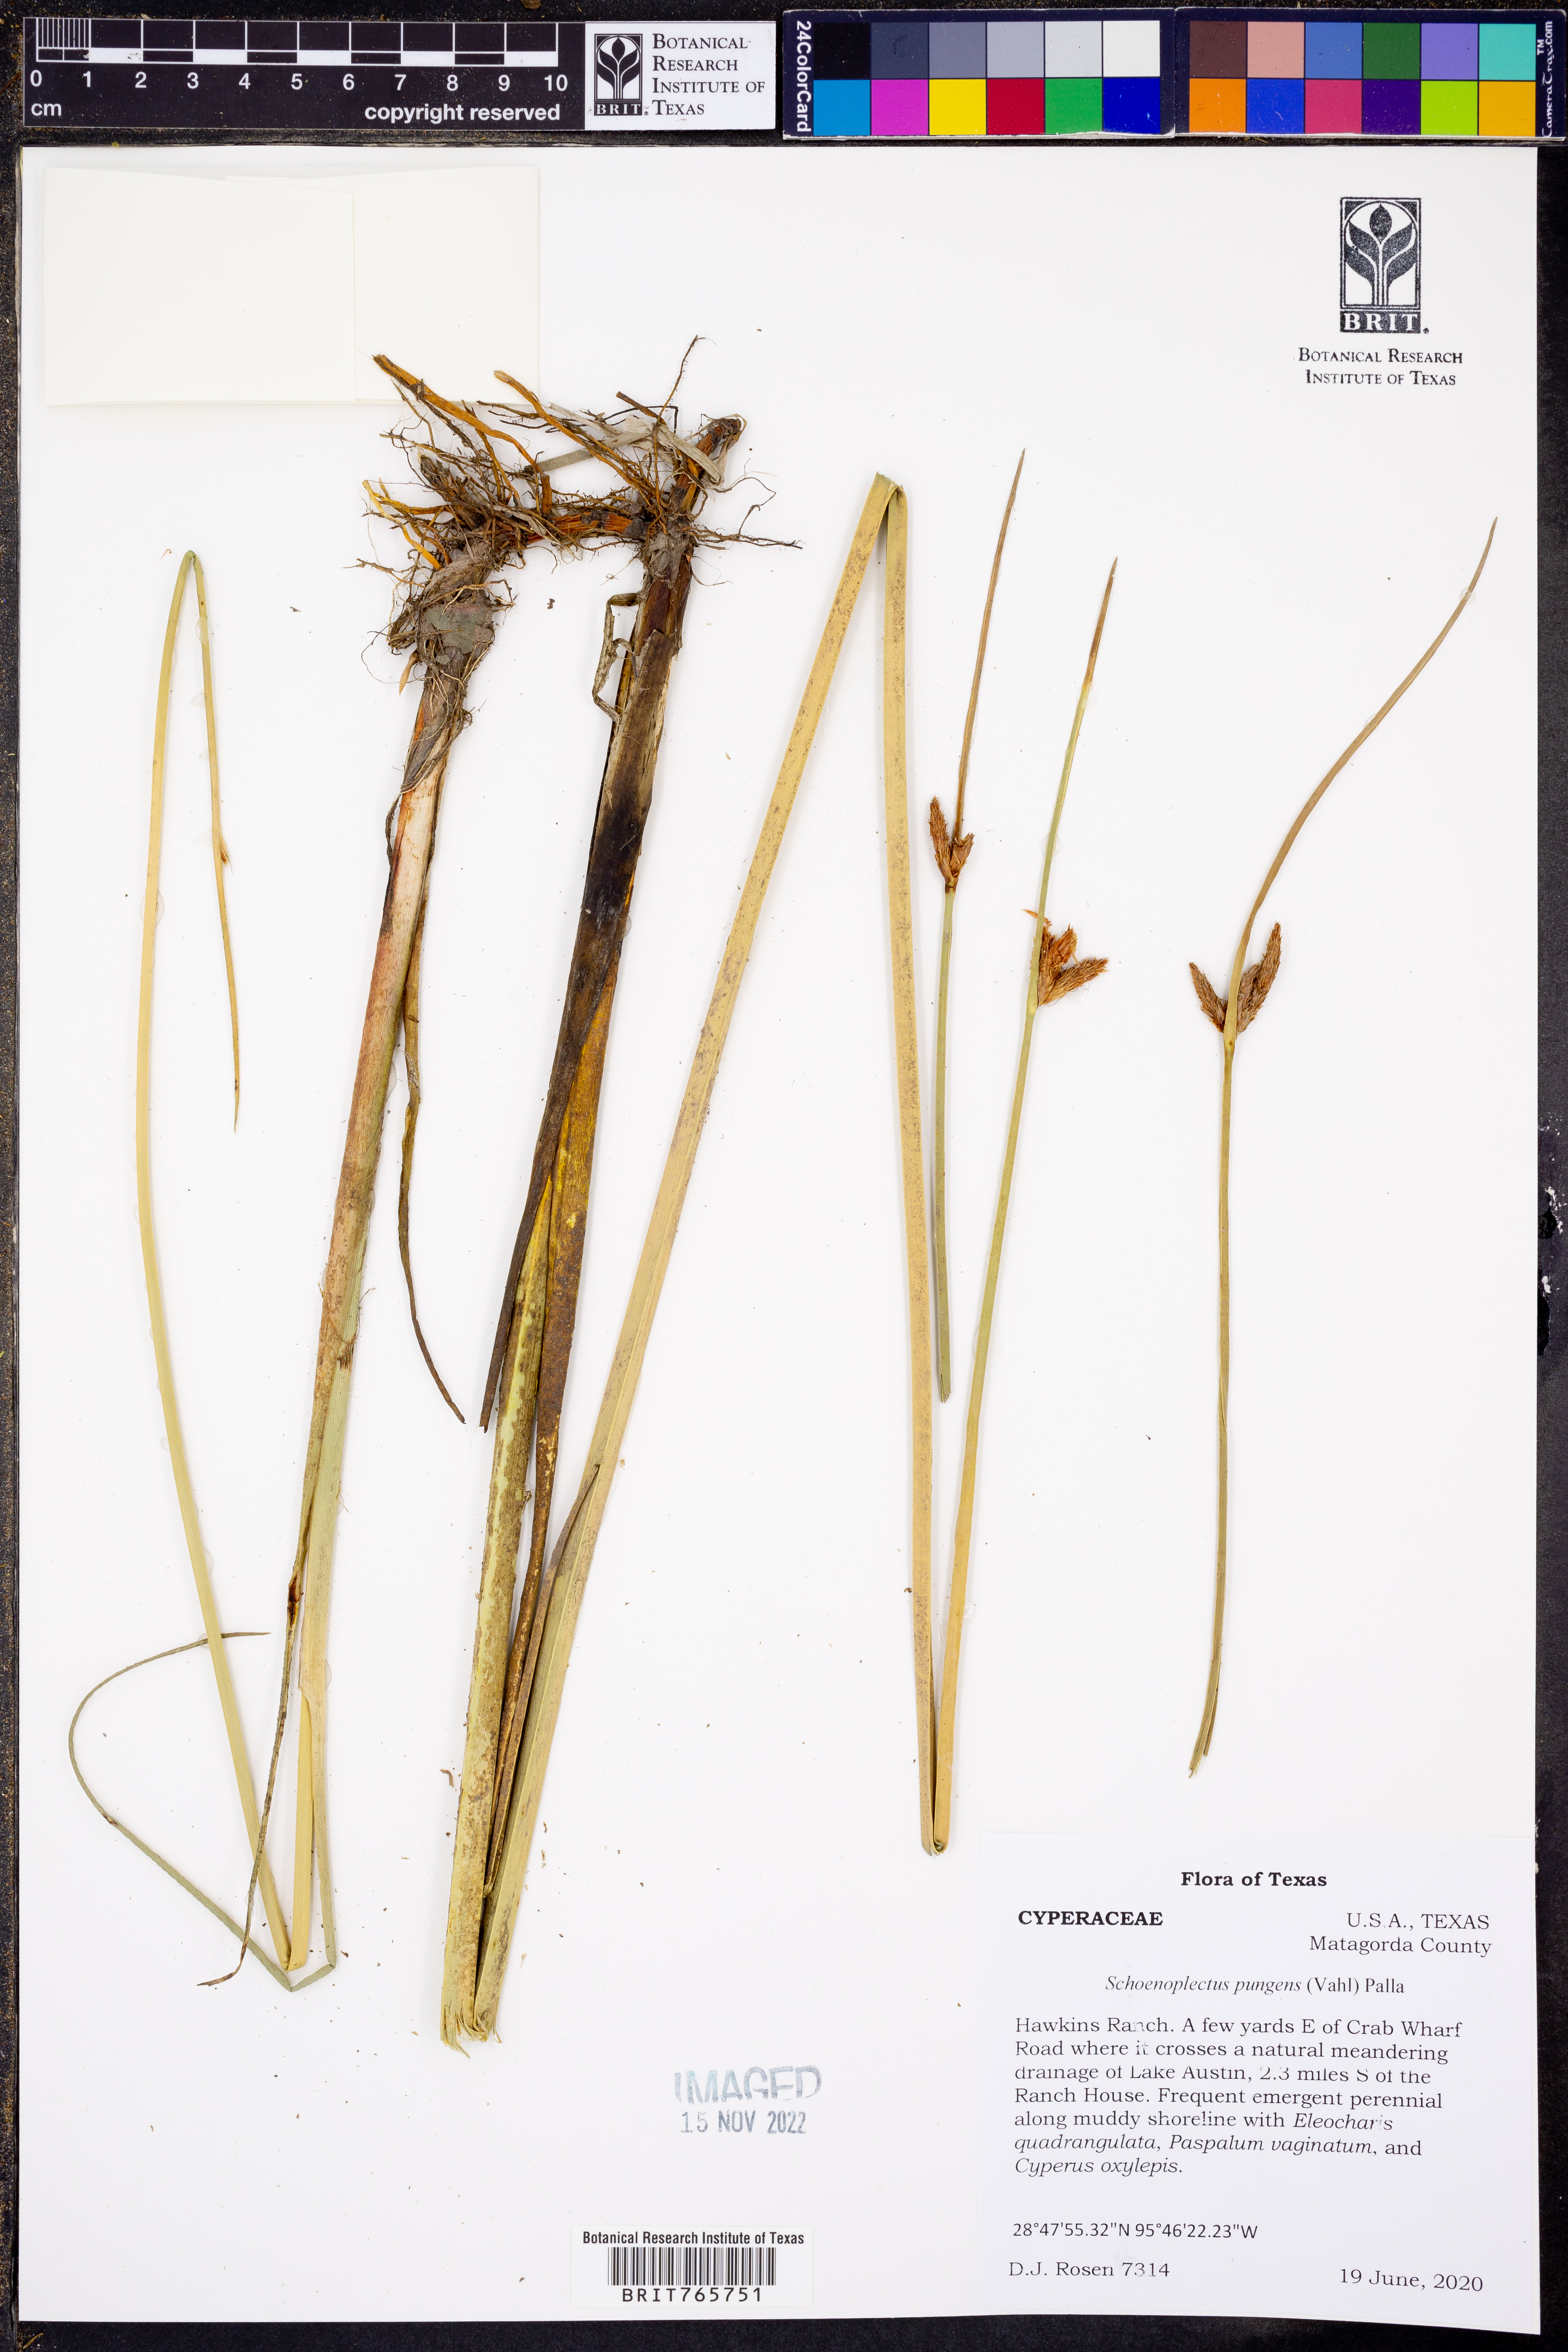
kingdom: Plantae
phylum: Tracheophyta
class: Liliopsida
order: Poales
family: Cyperaceae
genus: Schoenoplectus
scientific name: Schoenoplectus pungens
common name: Sharp club-rush
